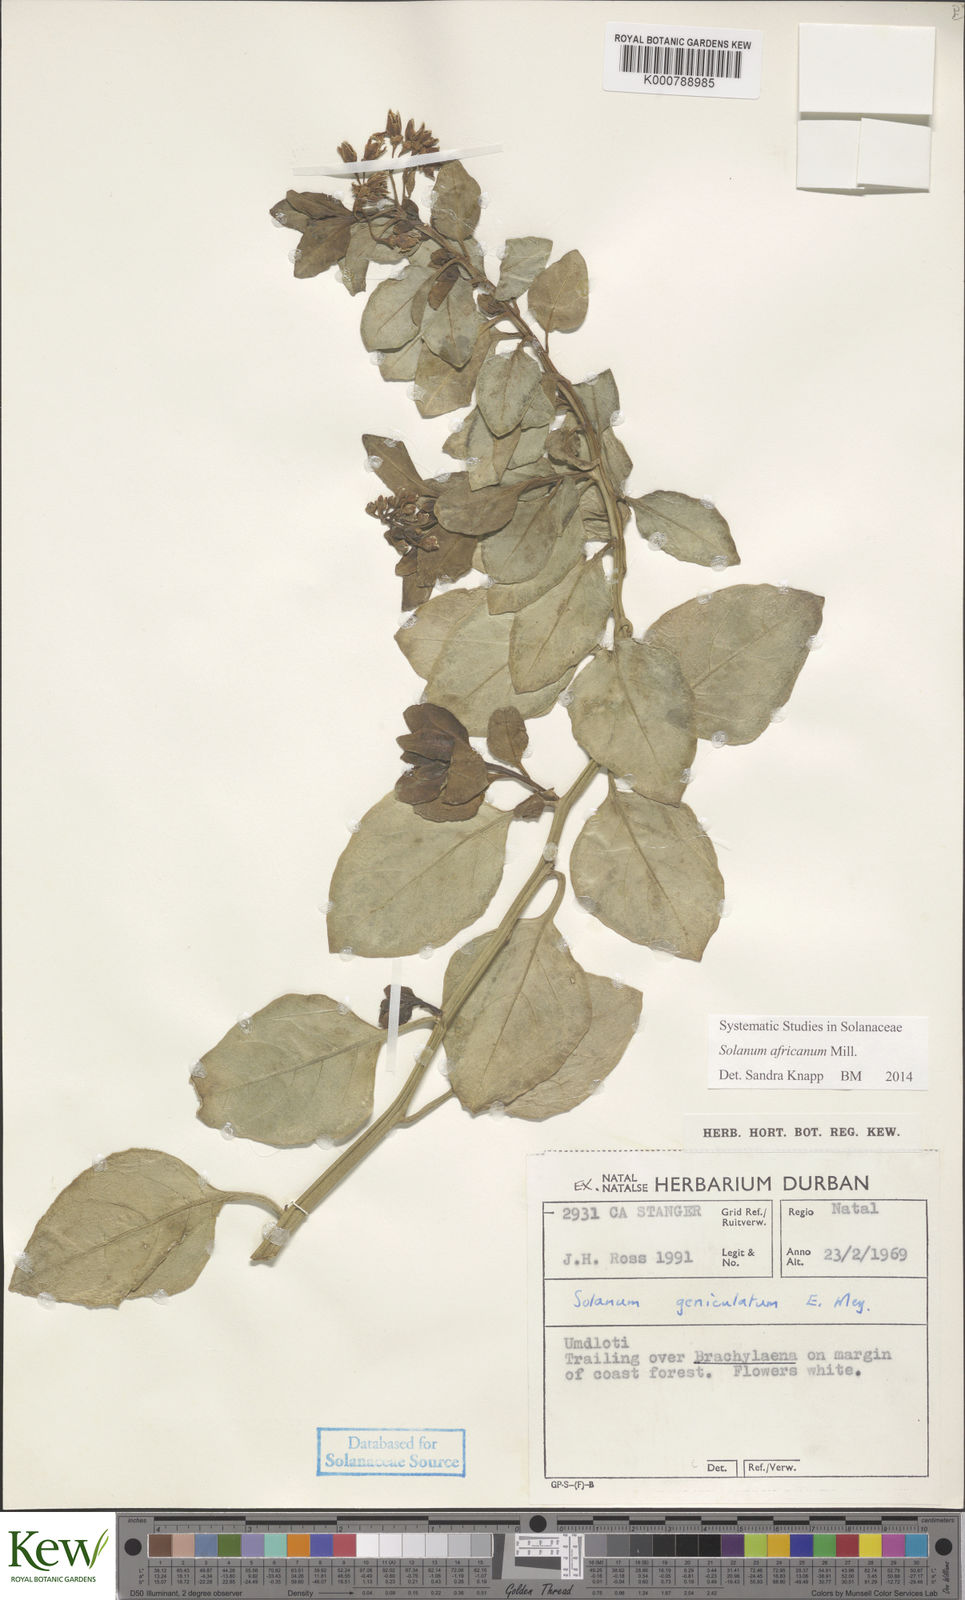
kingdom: Plantae
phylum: Tracheophyta
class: Magnoliopsida
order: Solanales
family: Solanaceae
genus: Solanum
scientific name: Solanum africanum
